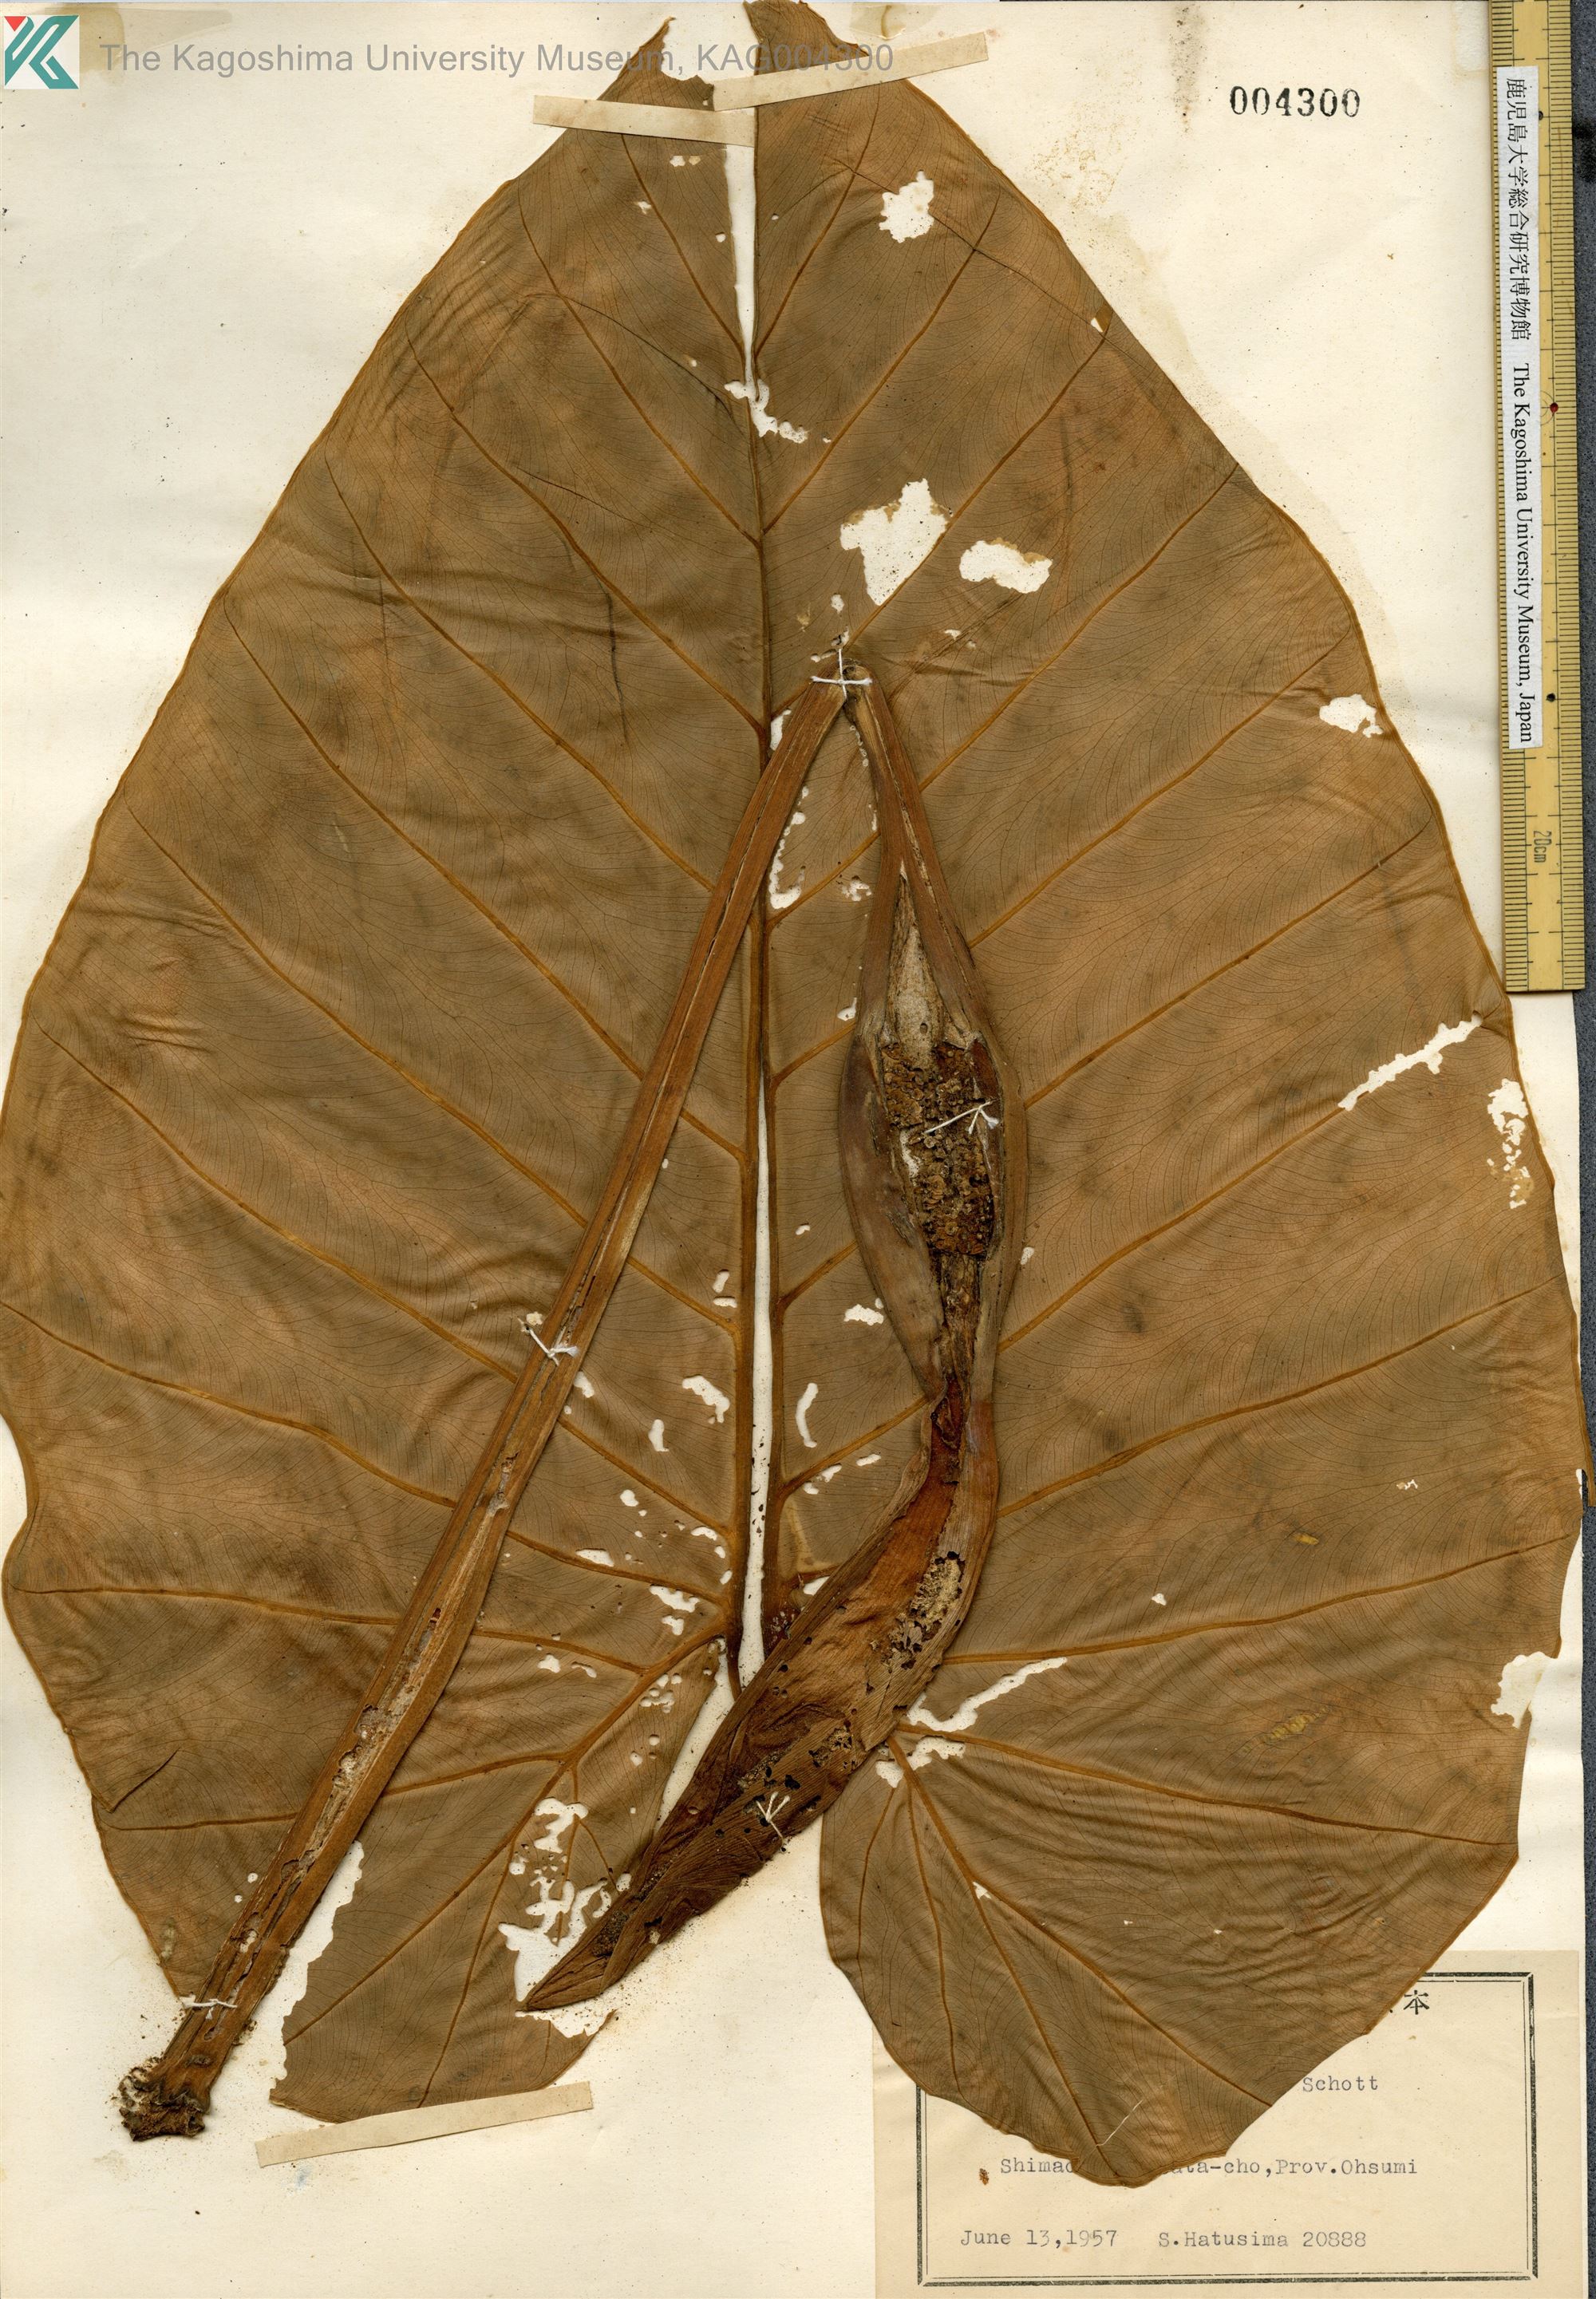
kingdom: Plantae
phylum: Tracheophyta
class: Liliopsida
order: Alismatales
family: Araceae
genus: Alocasia
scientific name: Alocasia odora
